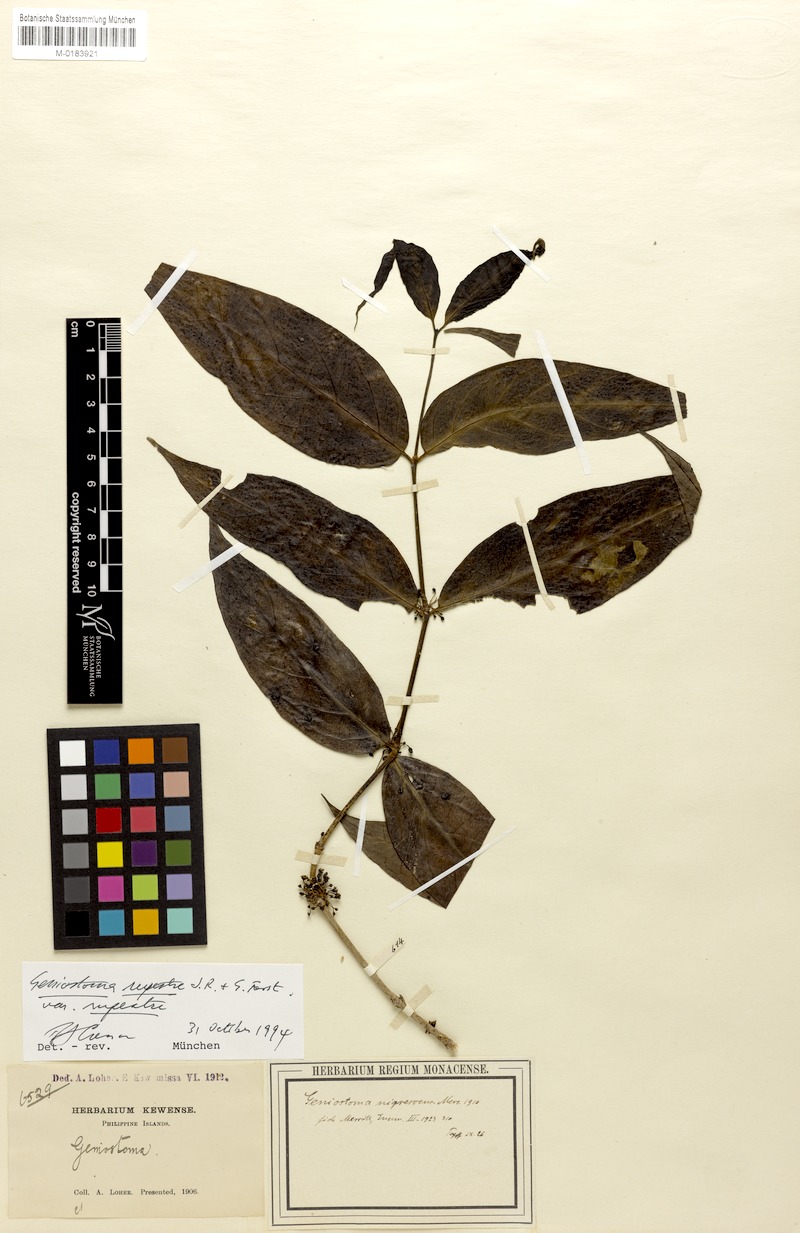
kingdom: Plantae
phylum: Tracheophyta
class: Magnoliopsida
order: Gentianales
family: Loganiaceae
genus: Geniostoma
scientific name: Geniostoma rupestre
